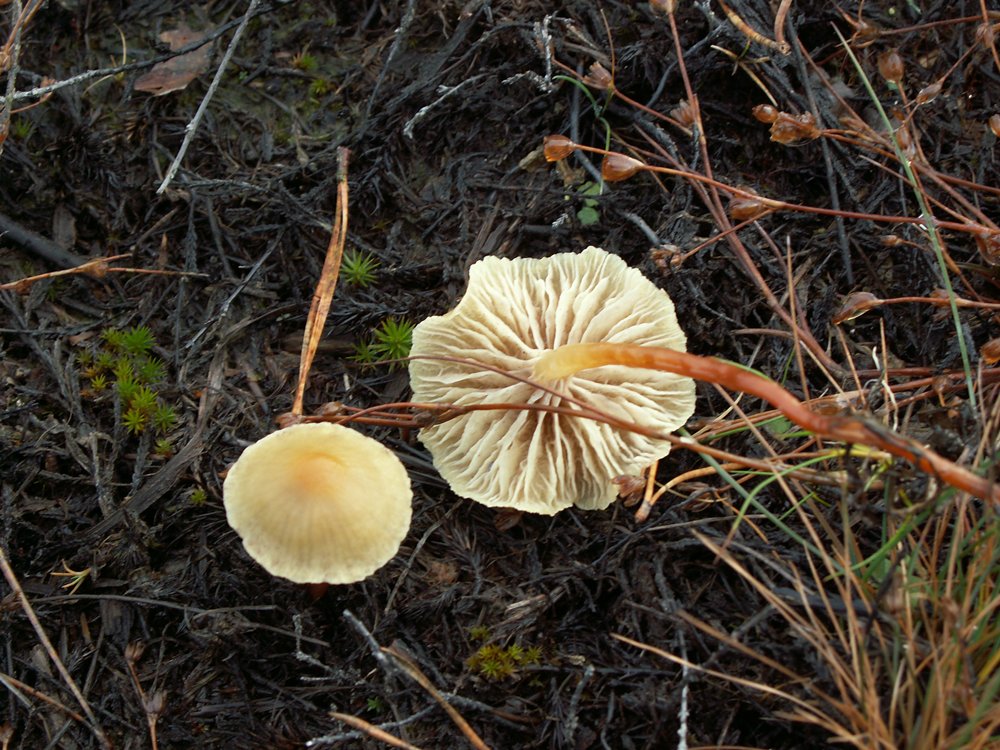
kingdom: Fungi
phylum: Basidiomycota
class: Agaricomycetes
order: Agaricales
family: Strophariaceae
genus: Hypholoma
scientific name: Hypholoma elongatum
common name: slank svovlhat
